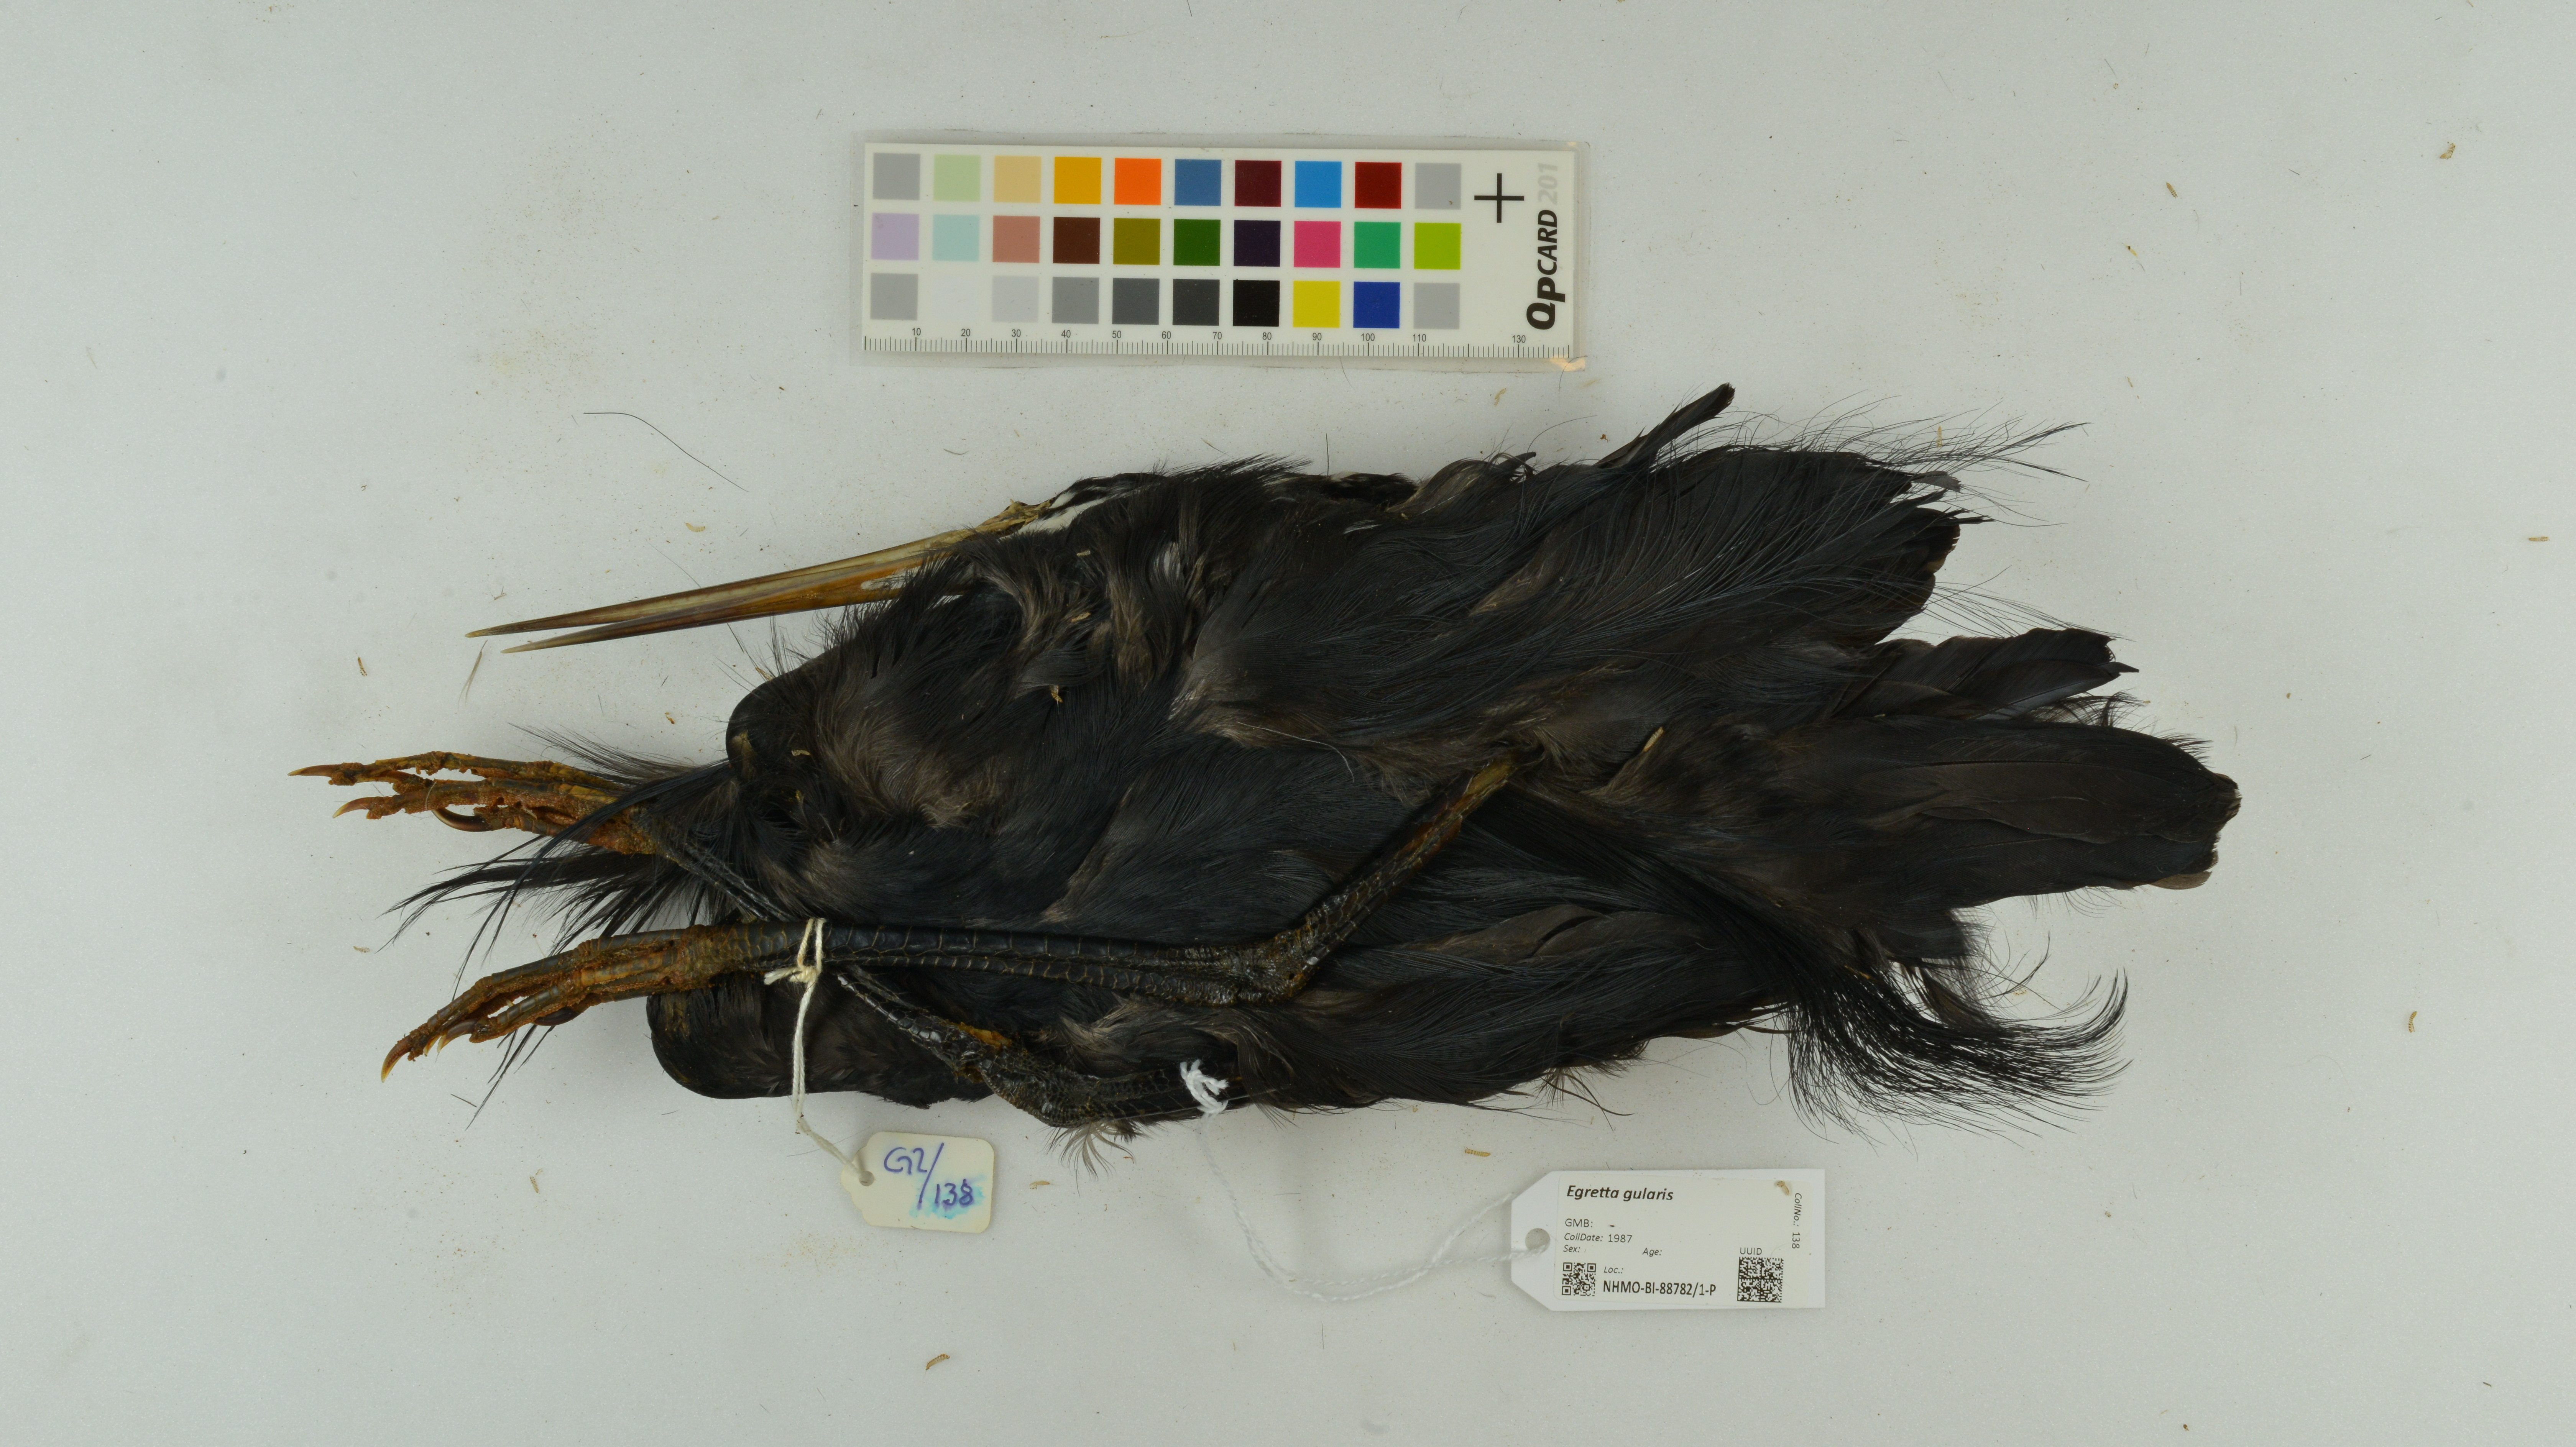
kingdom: Animalia
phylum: Chordata
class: Aves
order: Pelecaniformes
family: Ardeidae
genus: Egretta
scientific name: Egretta gularis
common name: Western reef-heron
